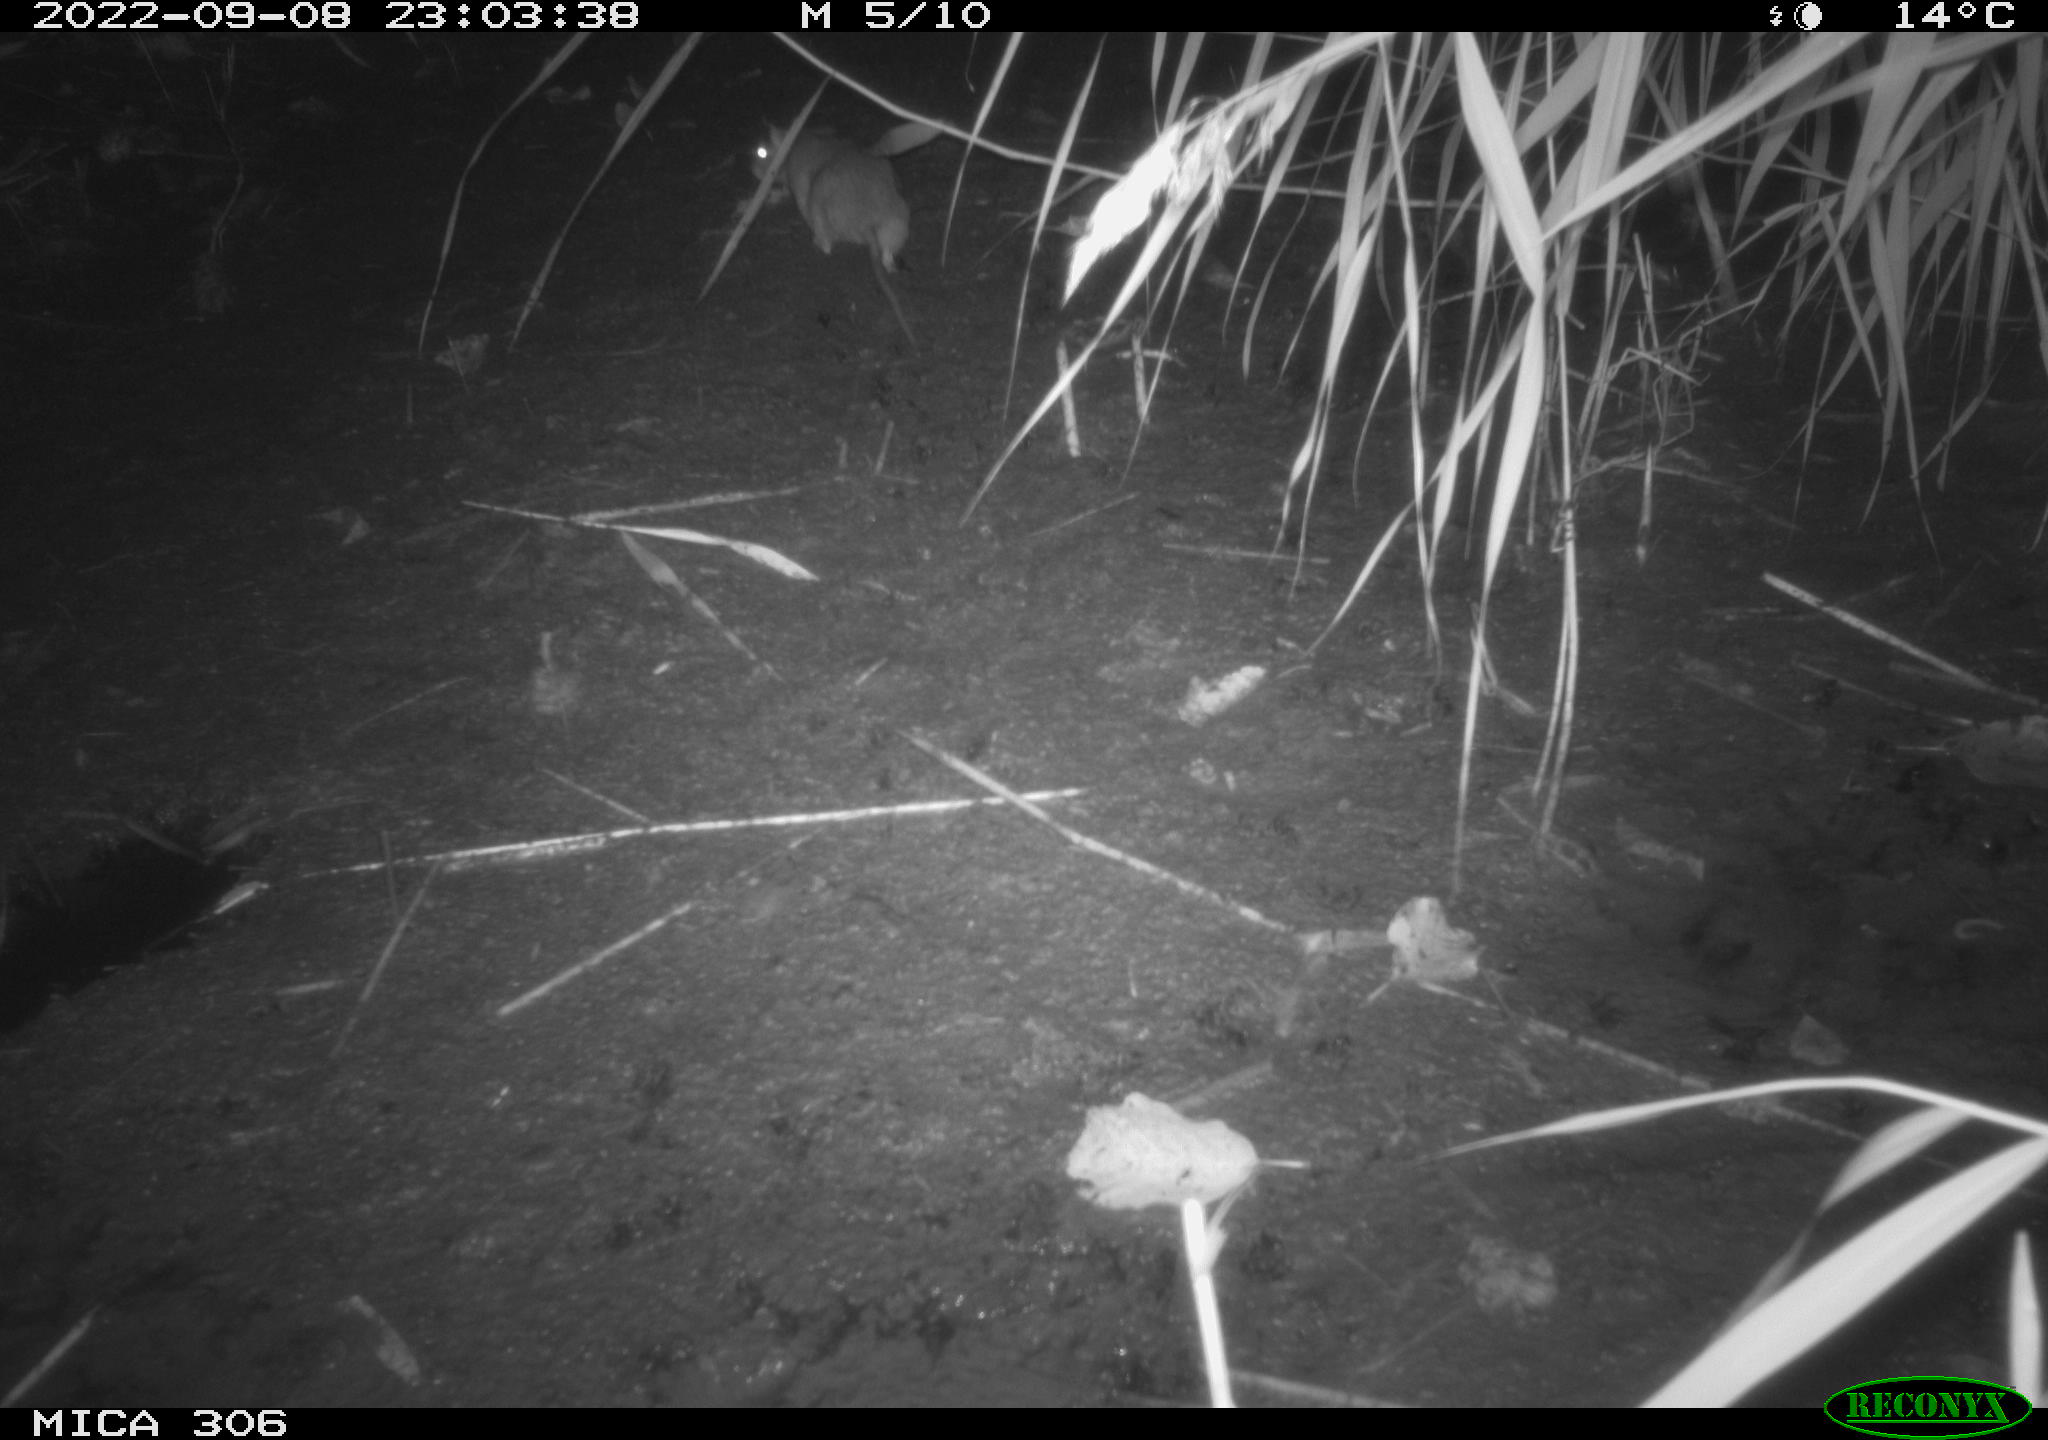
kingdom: Animalia
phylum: Chordata
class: Mammalia
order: Rodentia
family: Muridae
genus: Rattus
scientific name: Rattus norvegicus
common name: Brown rat
